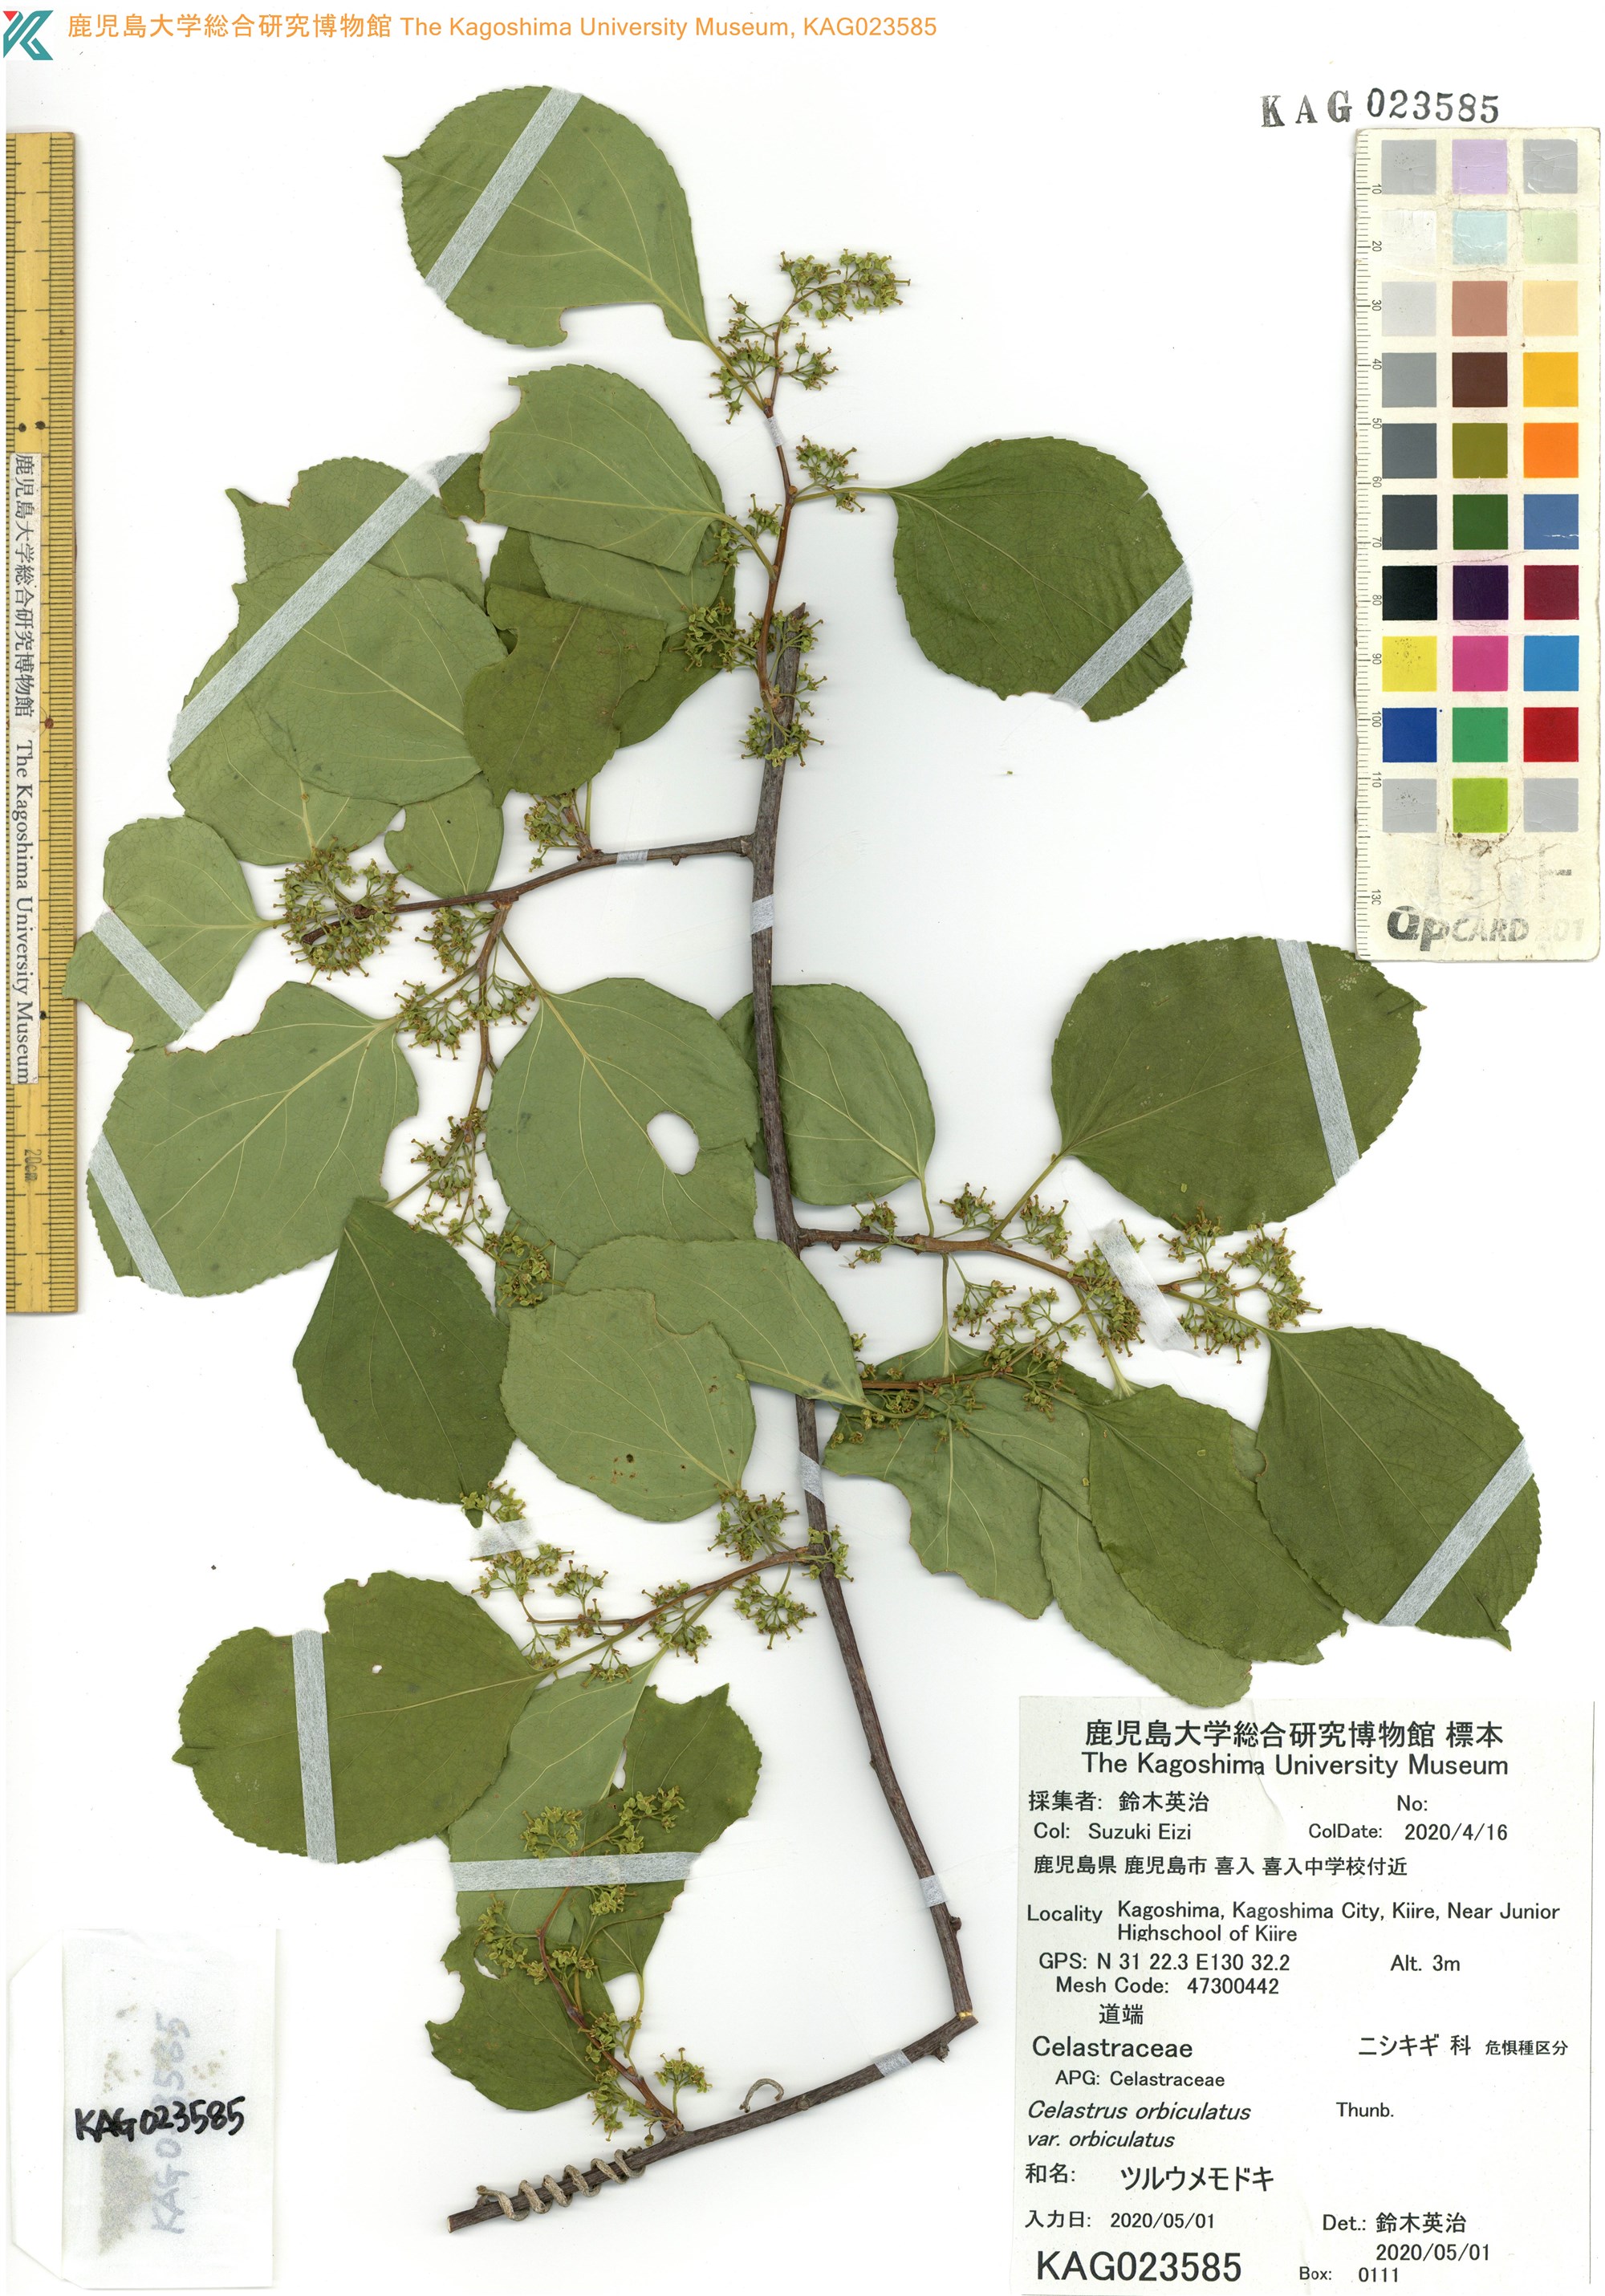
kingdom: Plantae
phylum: Tracheophyta
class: Magnoliopsida
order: Celastrales
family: Celastraceae
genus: Celastrus
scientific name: Celastrus orbiculatus
